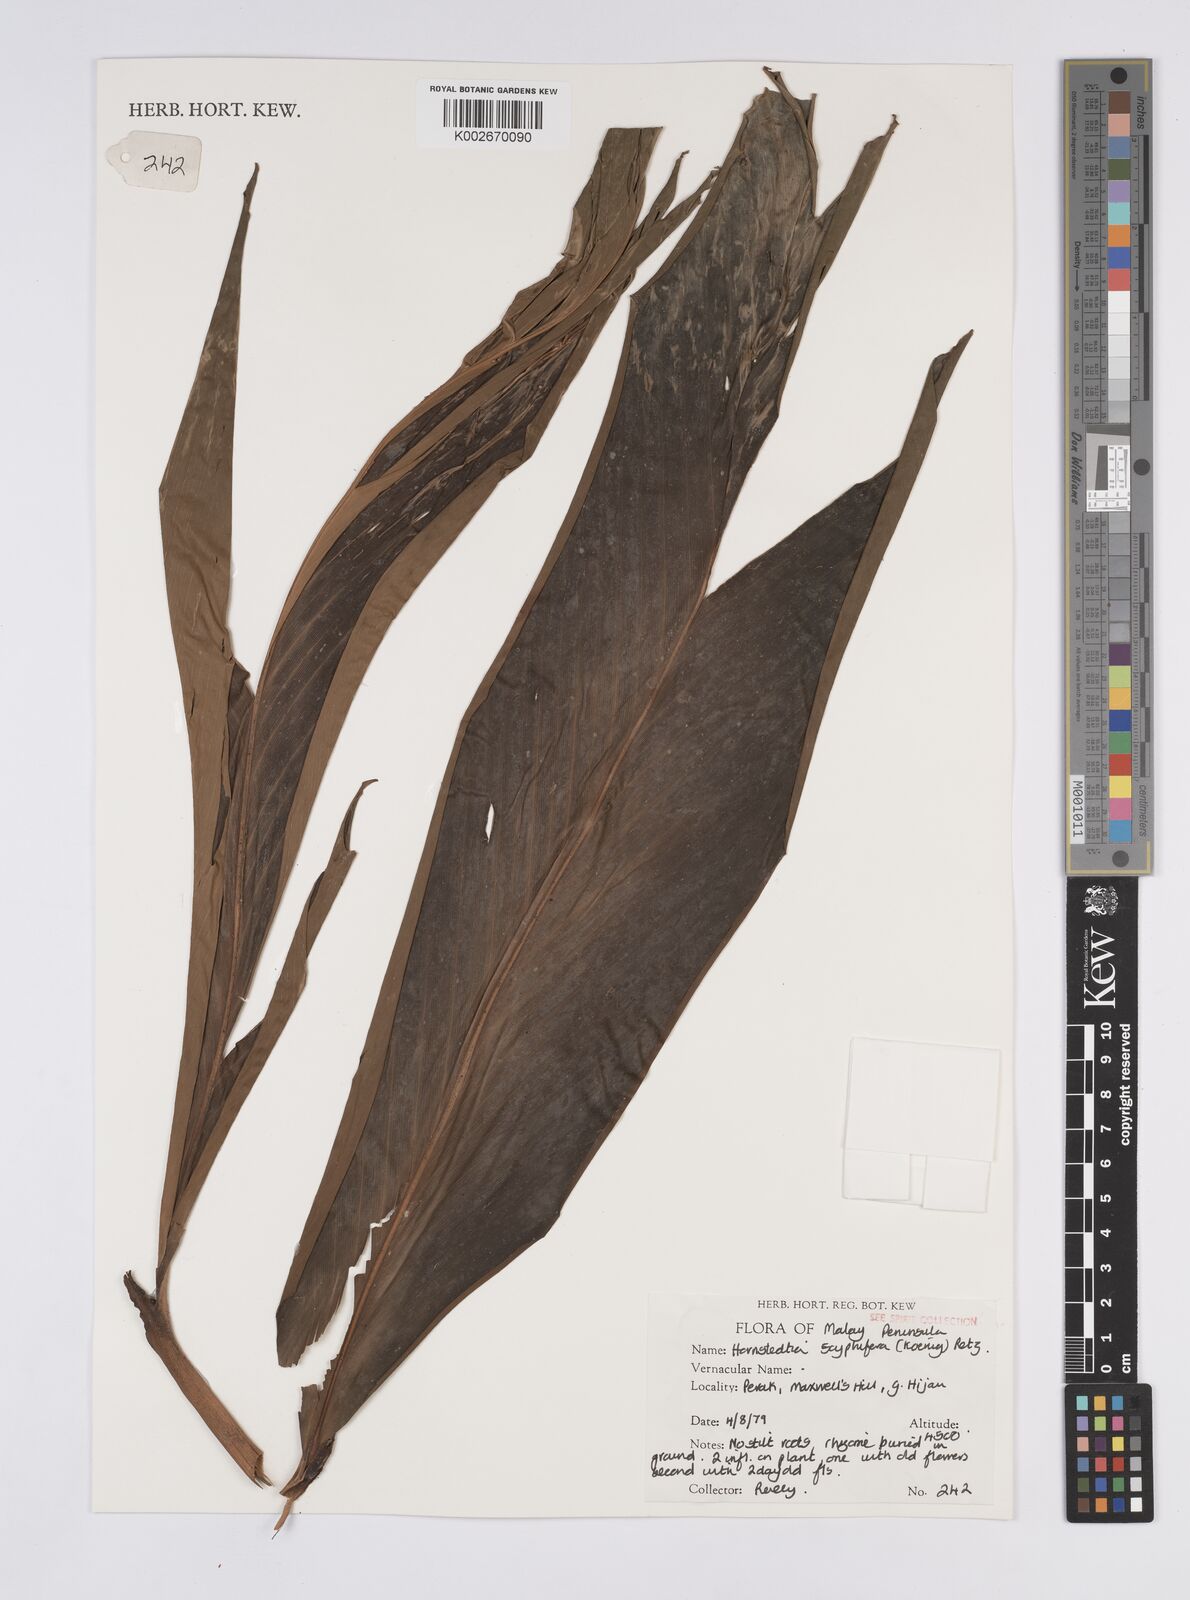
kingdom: Plantae
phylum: Tracheophyta
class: Liliopsida
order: Zingiberales
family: Zingiberaceae
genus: Hornstedtia
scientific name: Hornstedtia scyphifera
